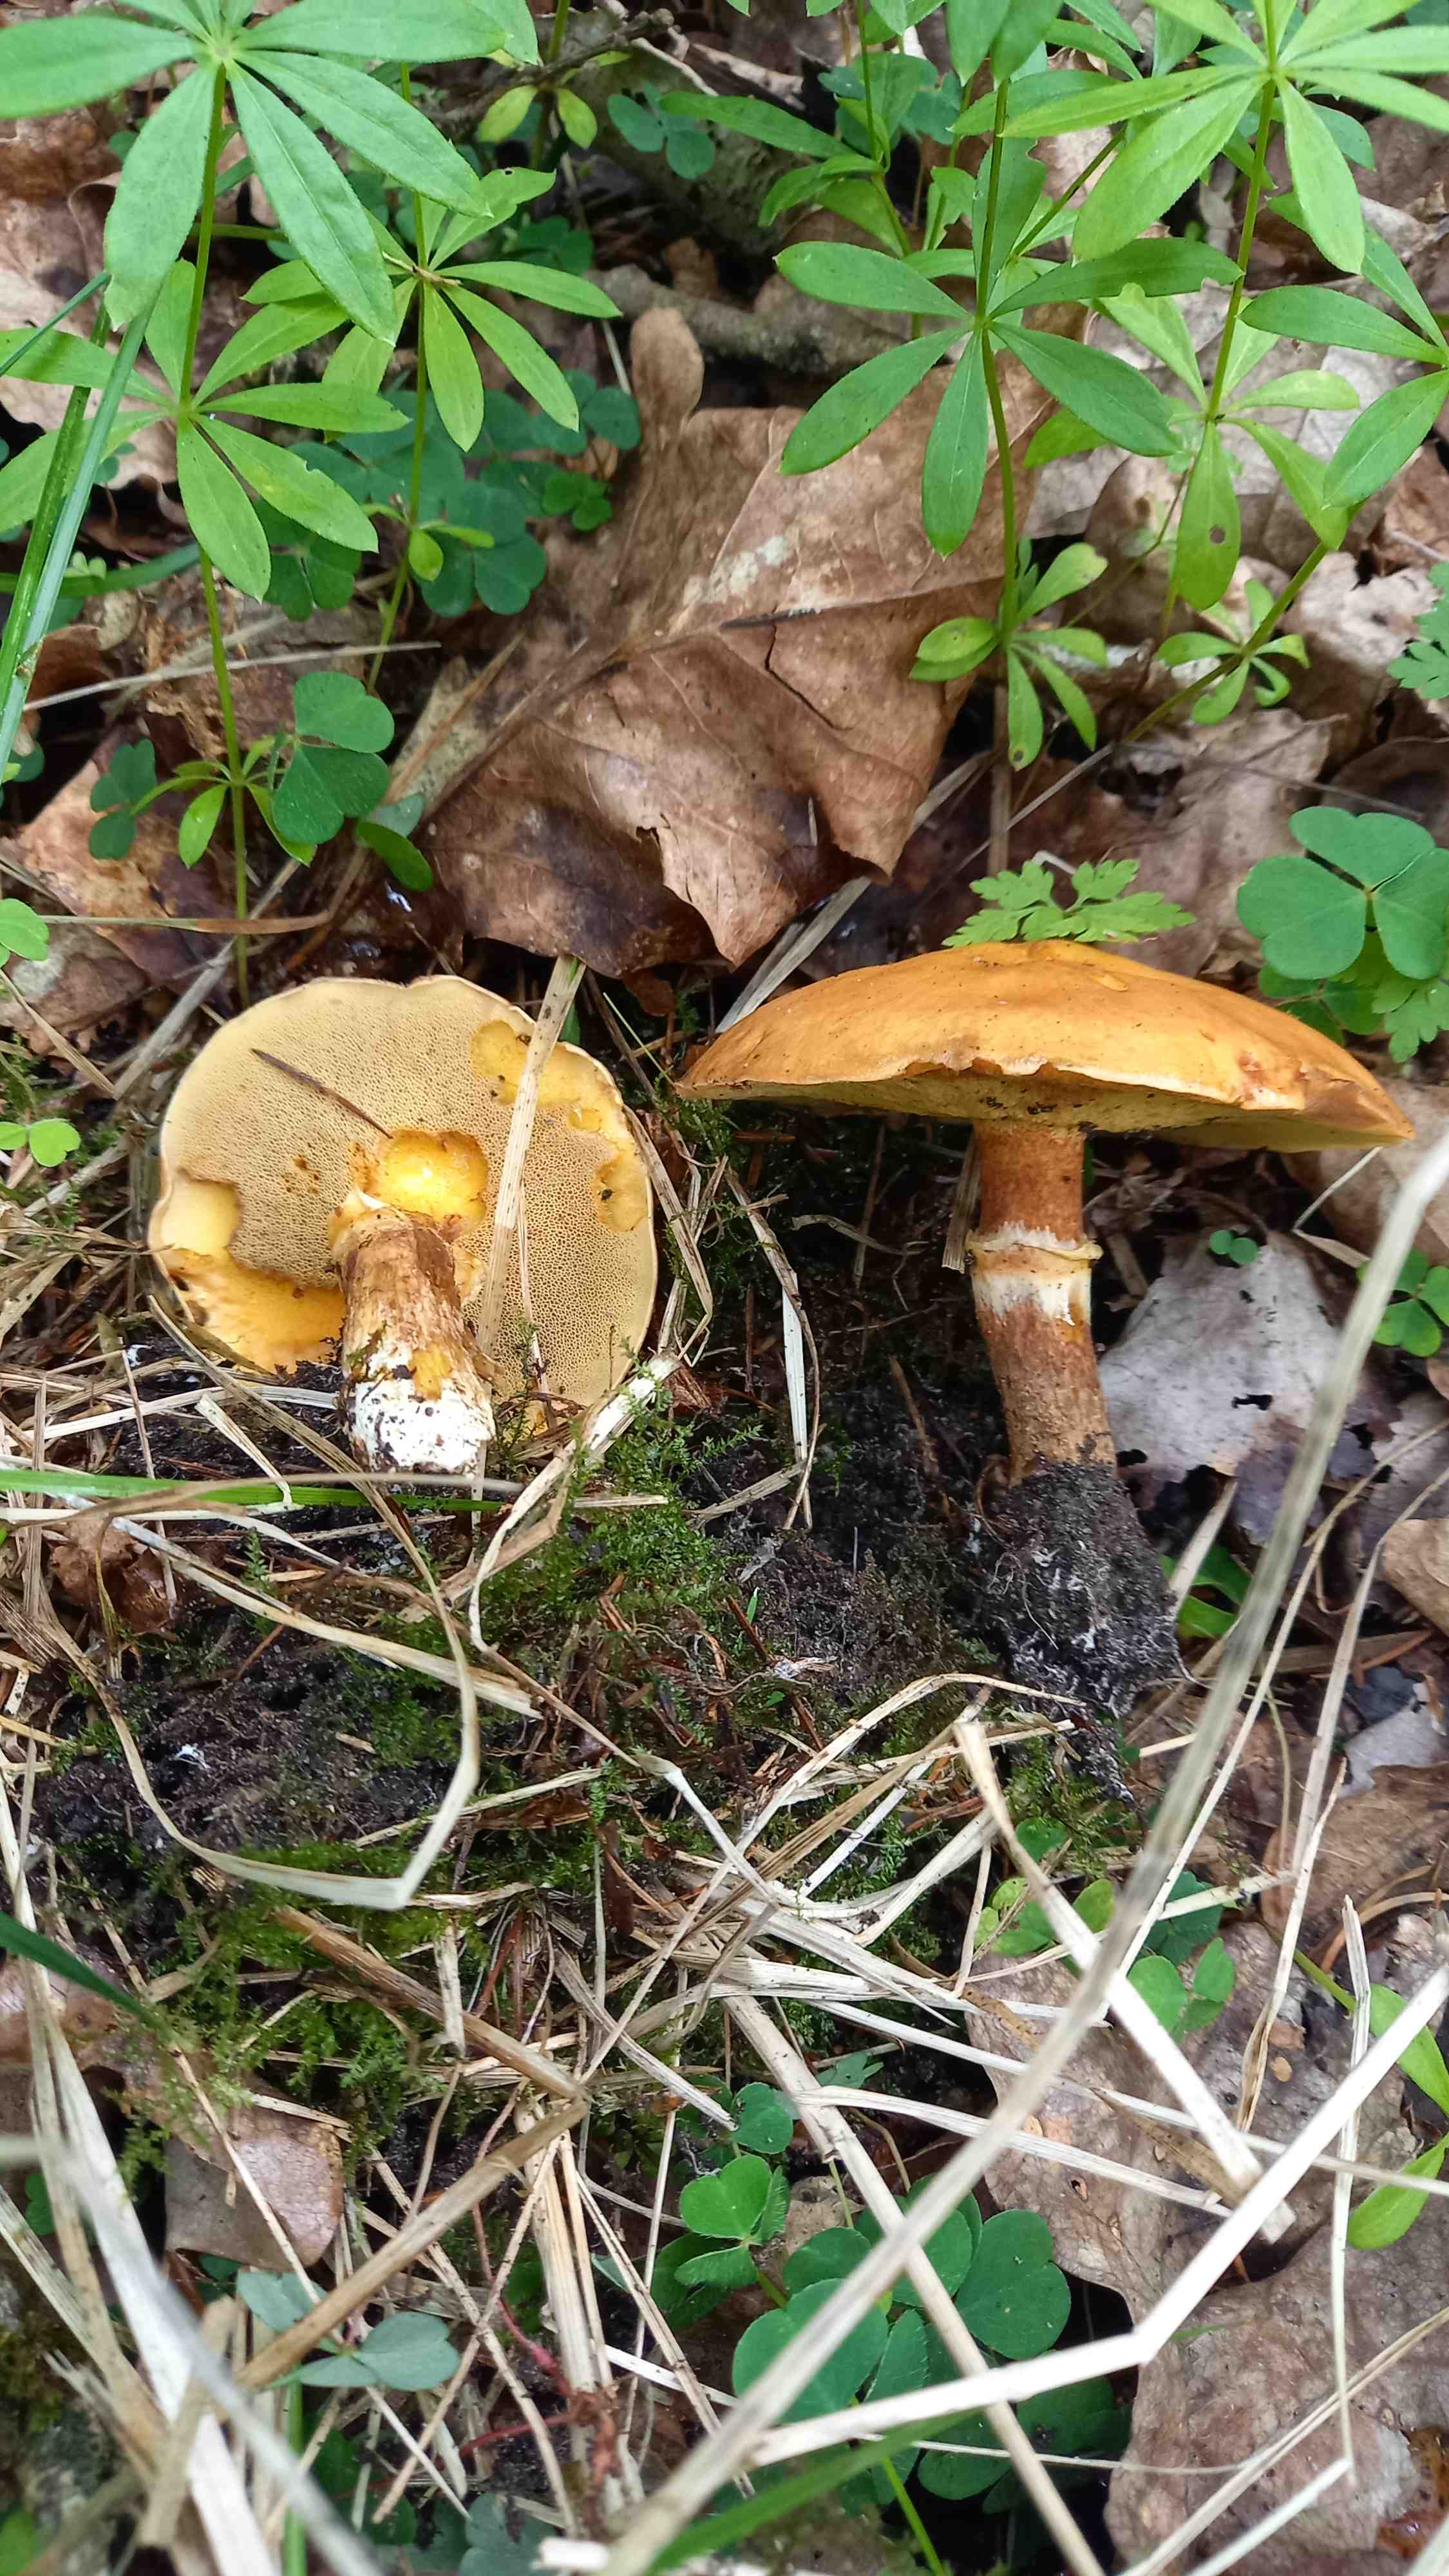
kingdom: Fungi
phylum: Basidiomycota
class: Agaricomycetes
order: Boletales
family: Suillaceae
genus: Suillus
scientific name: Suillus grevillei
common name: lærke-slimrørhat
